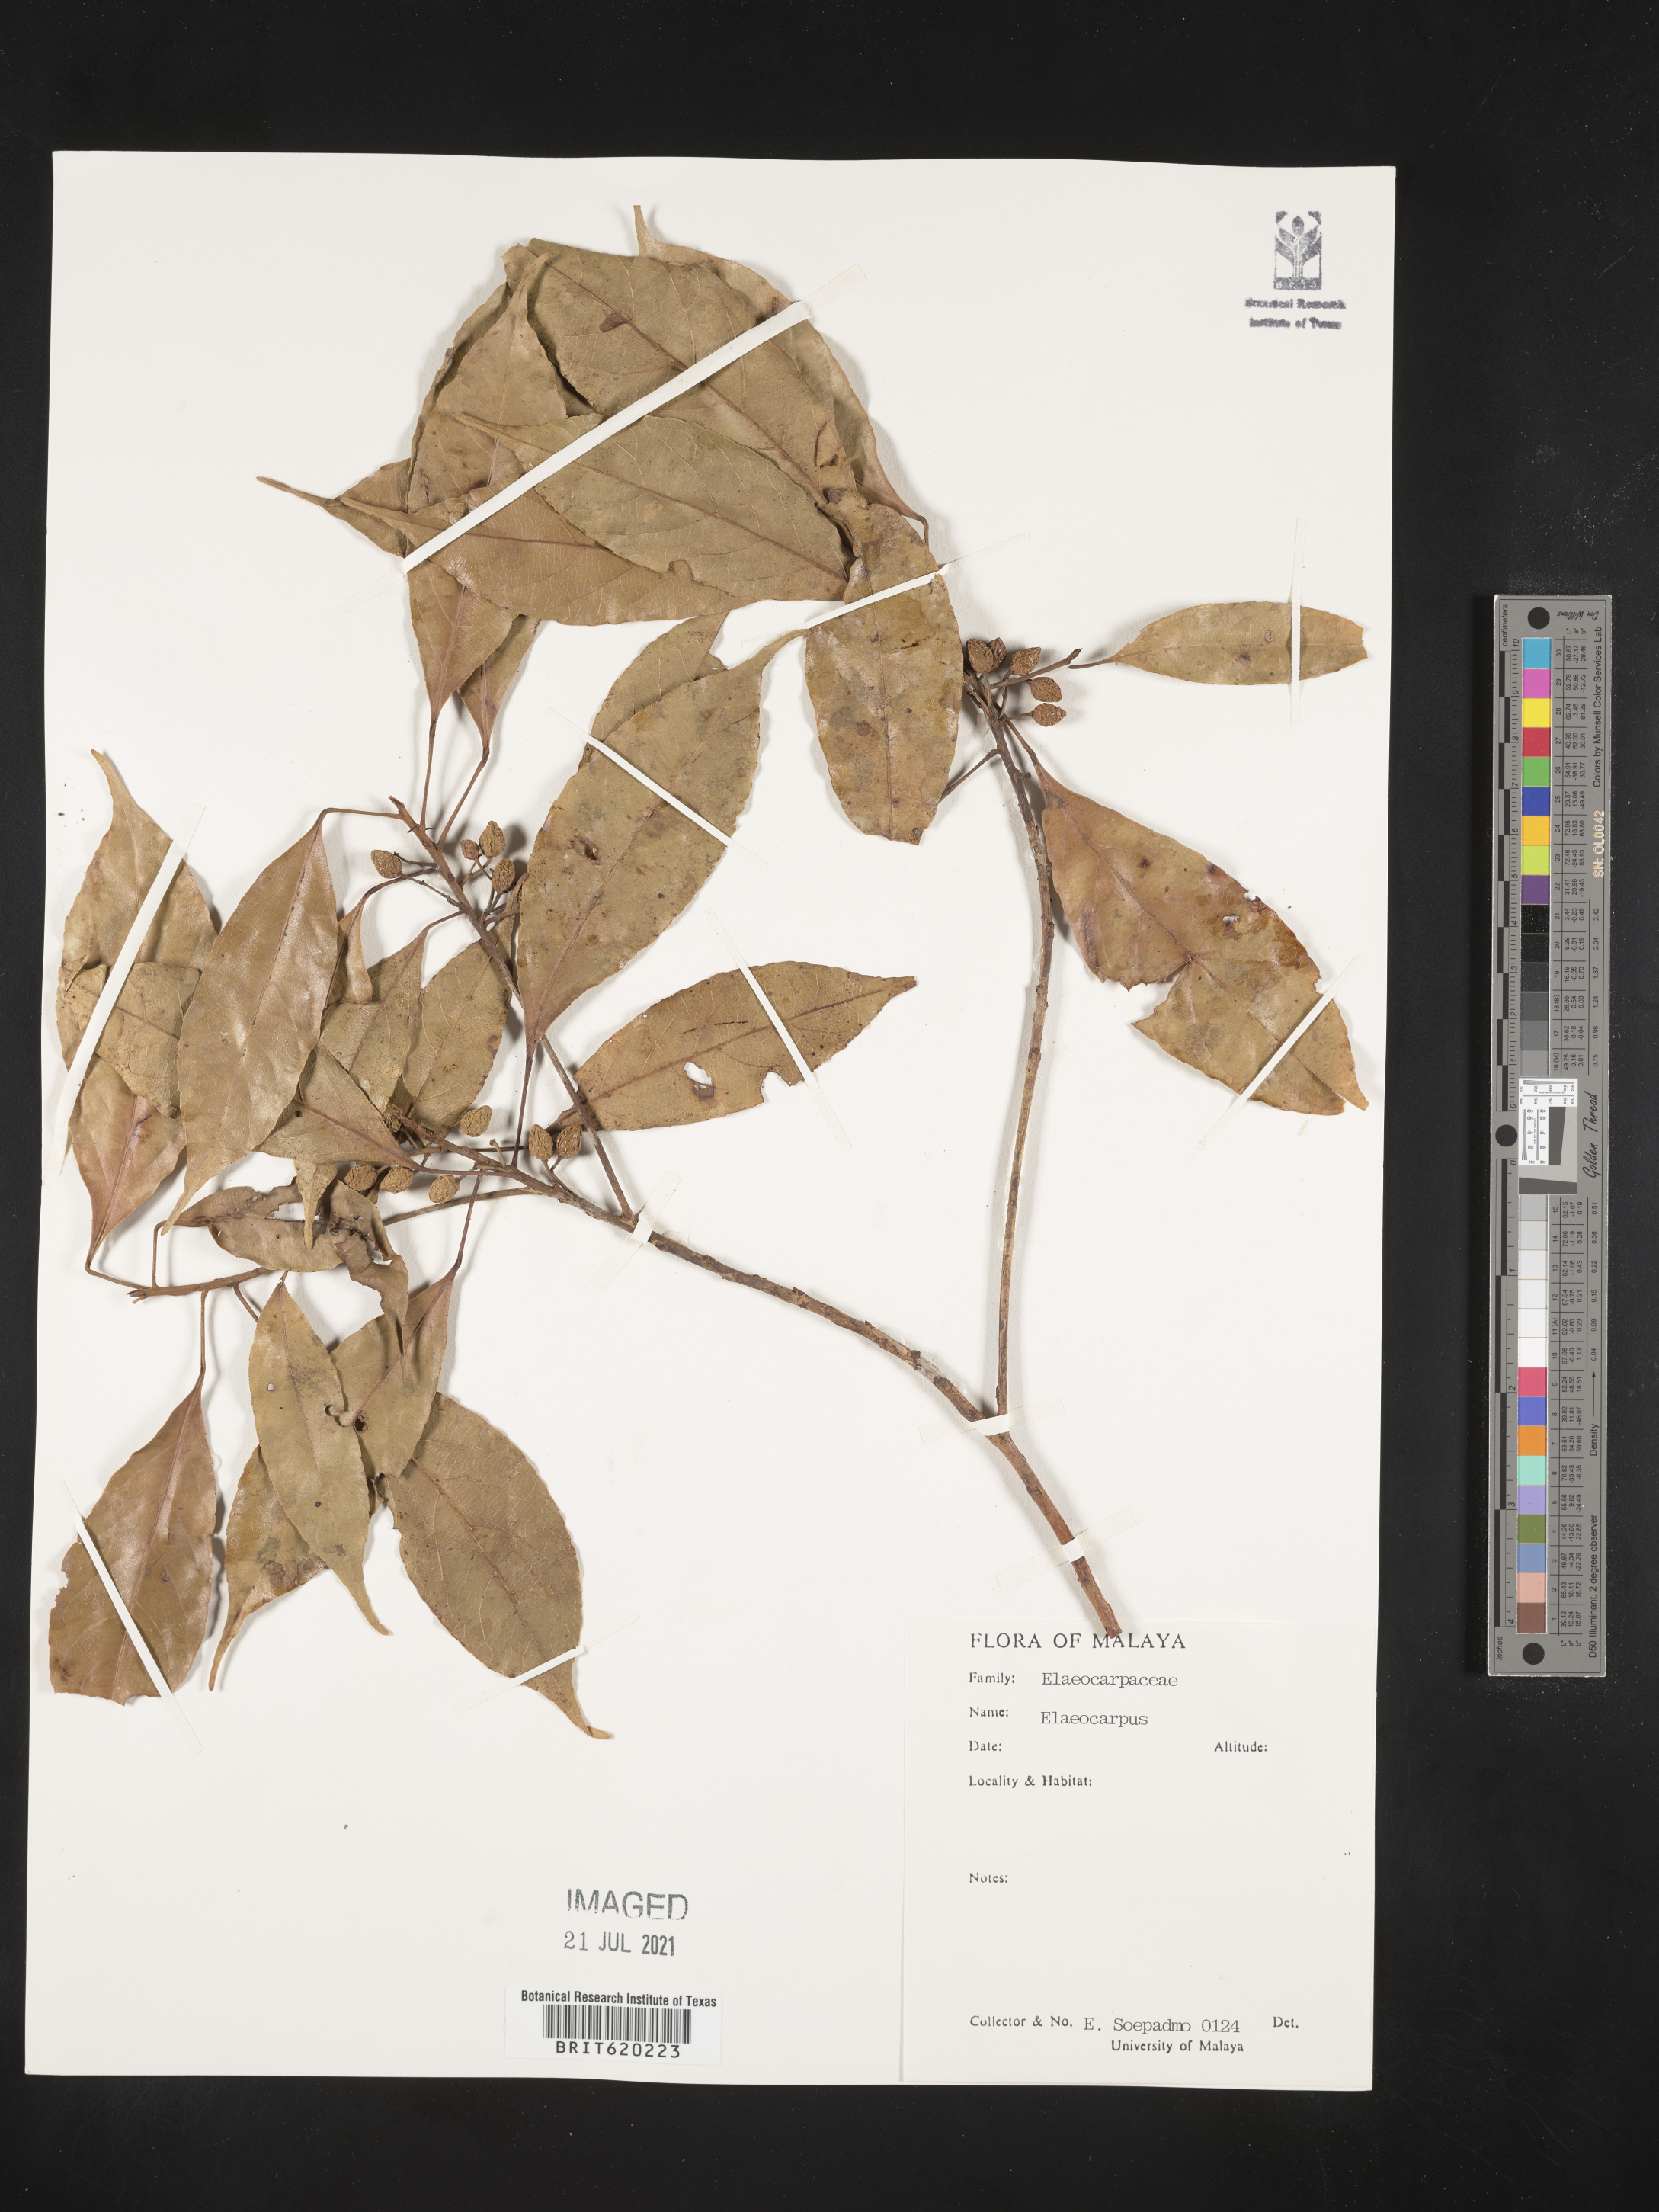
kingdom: Plantae
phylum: Tracheophyta
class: Magnoliopsida
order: Oxalidales
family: Elaeocarpaceae
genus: Elaeocarpus
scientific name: Elaeocarpus
